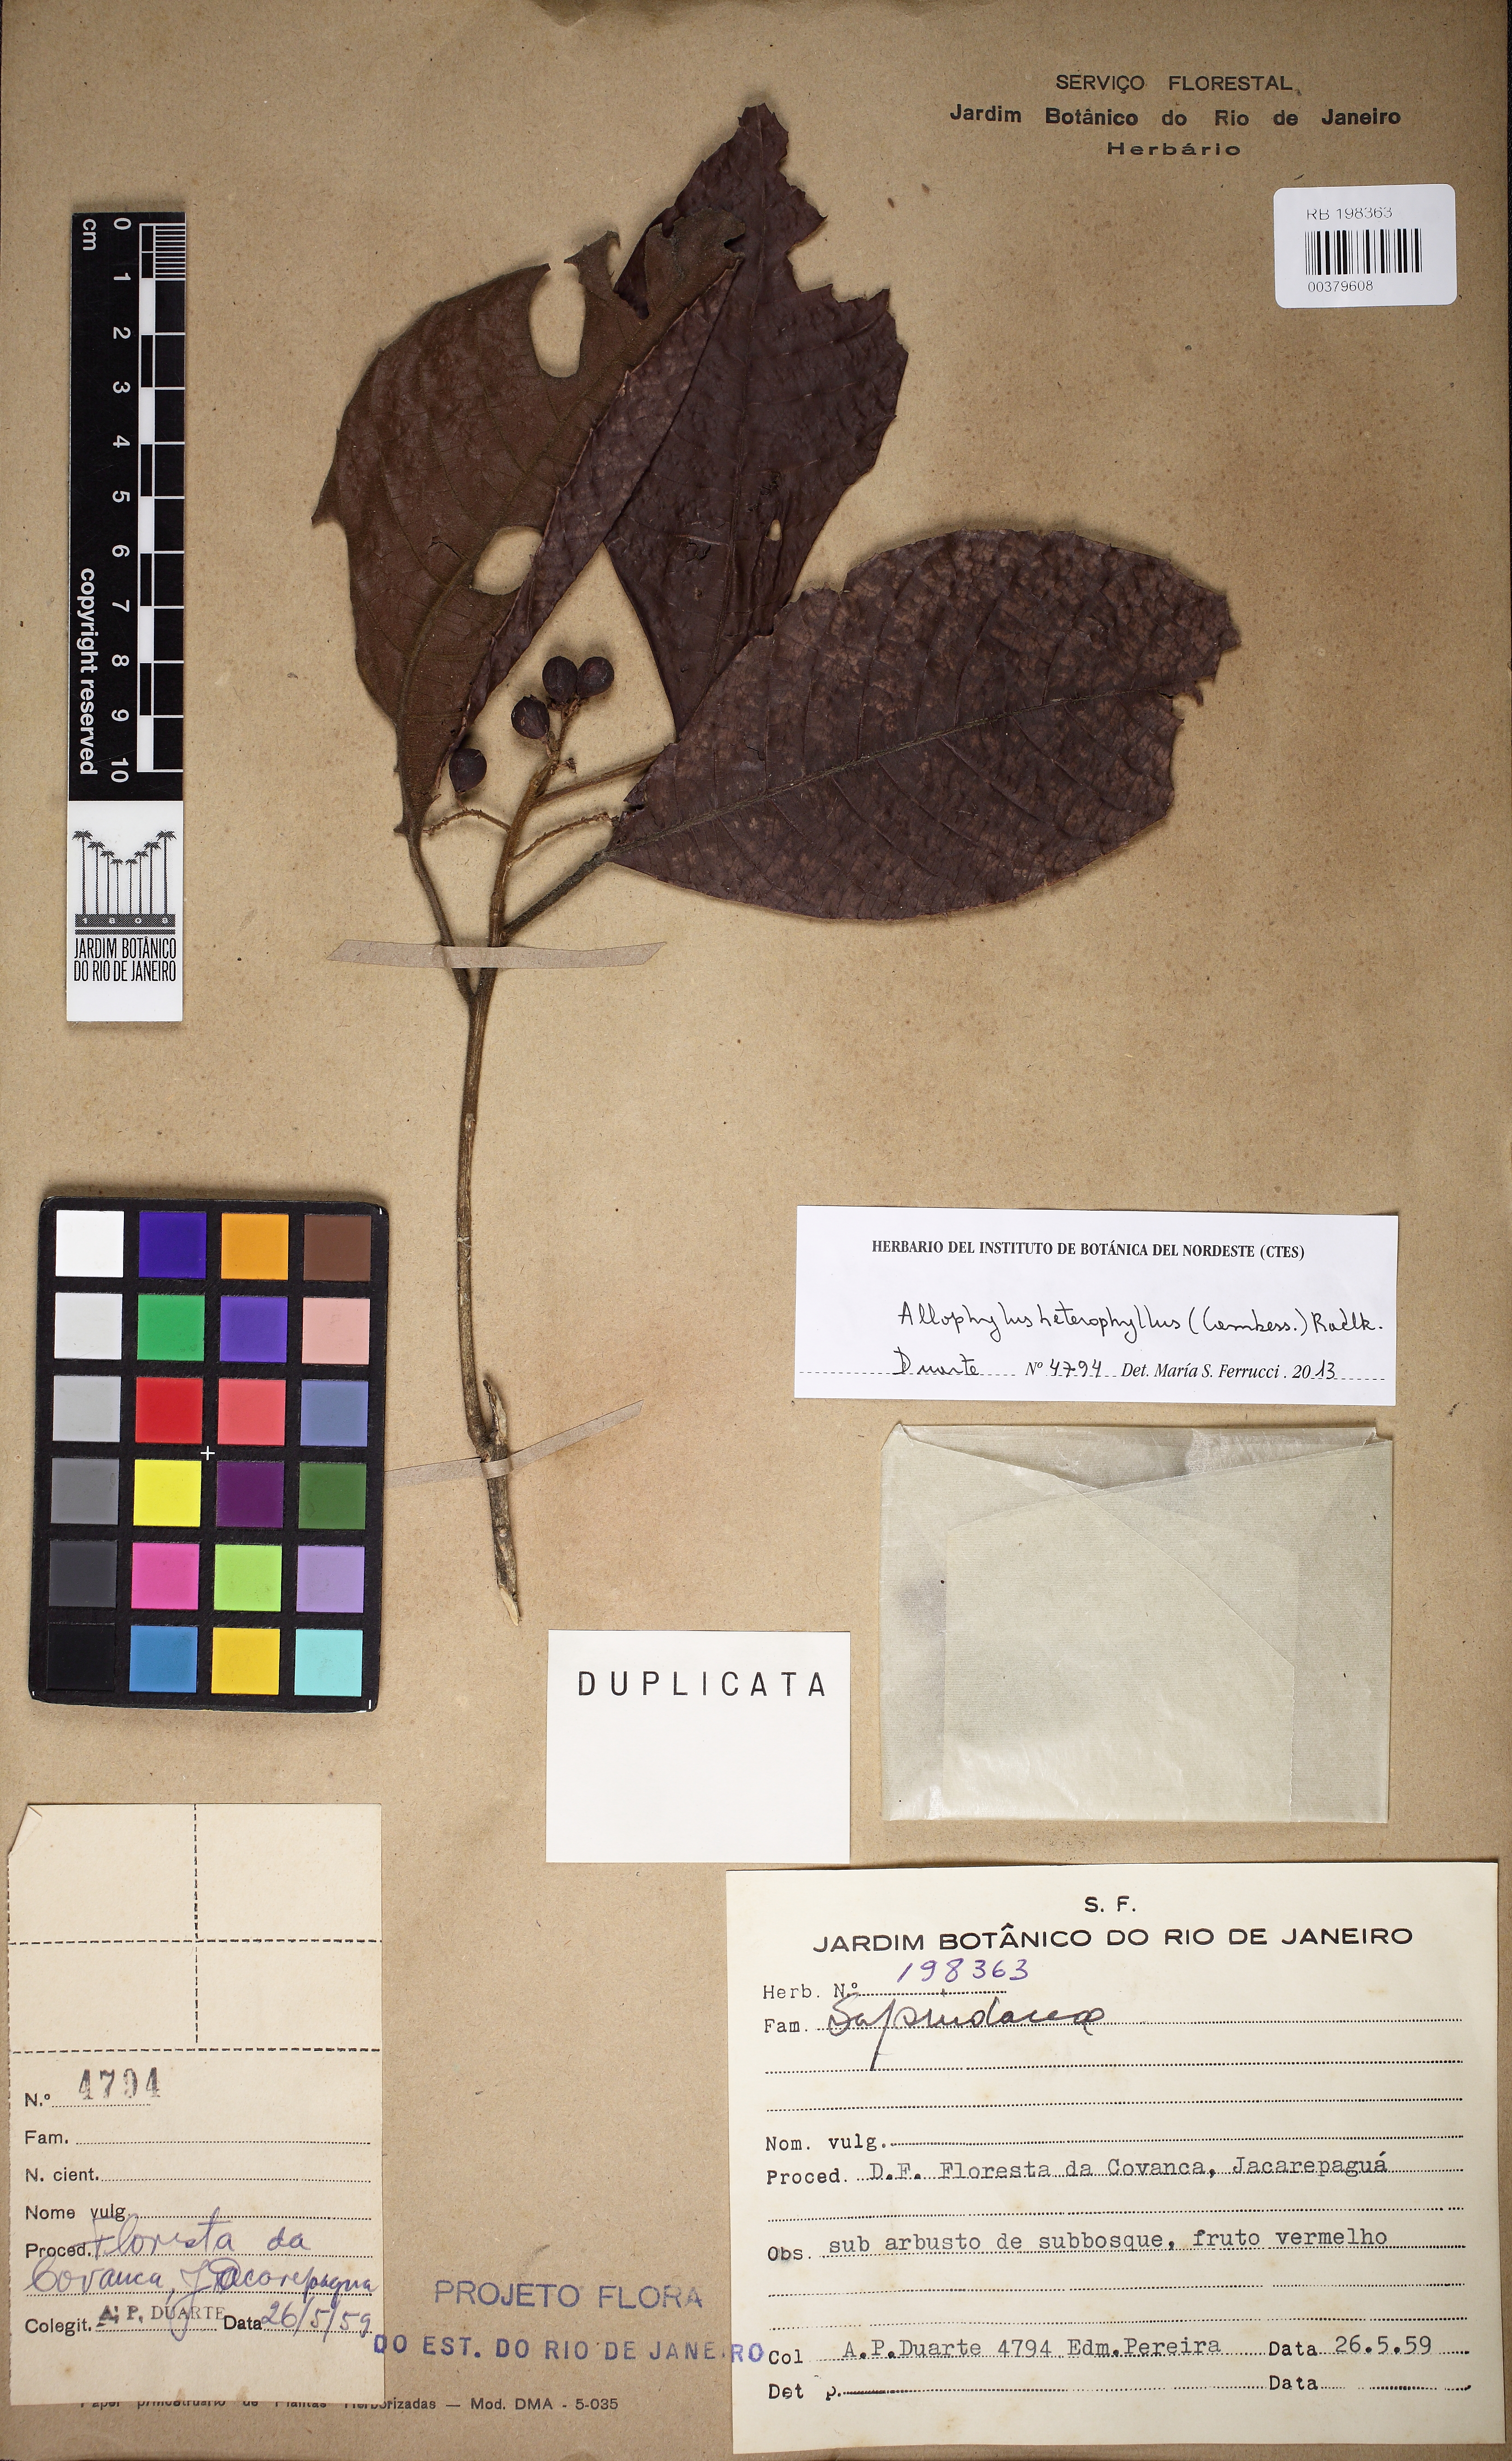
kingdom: Plantae
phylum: Tracheophyta
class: Magnoliopsida
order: Sapindales
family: Sapindaceae
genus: Allophylus
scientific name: Allophylus heterophyllus
